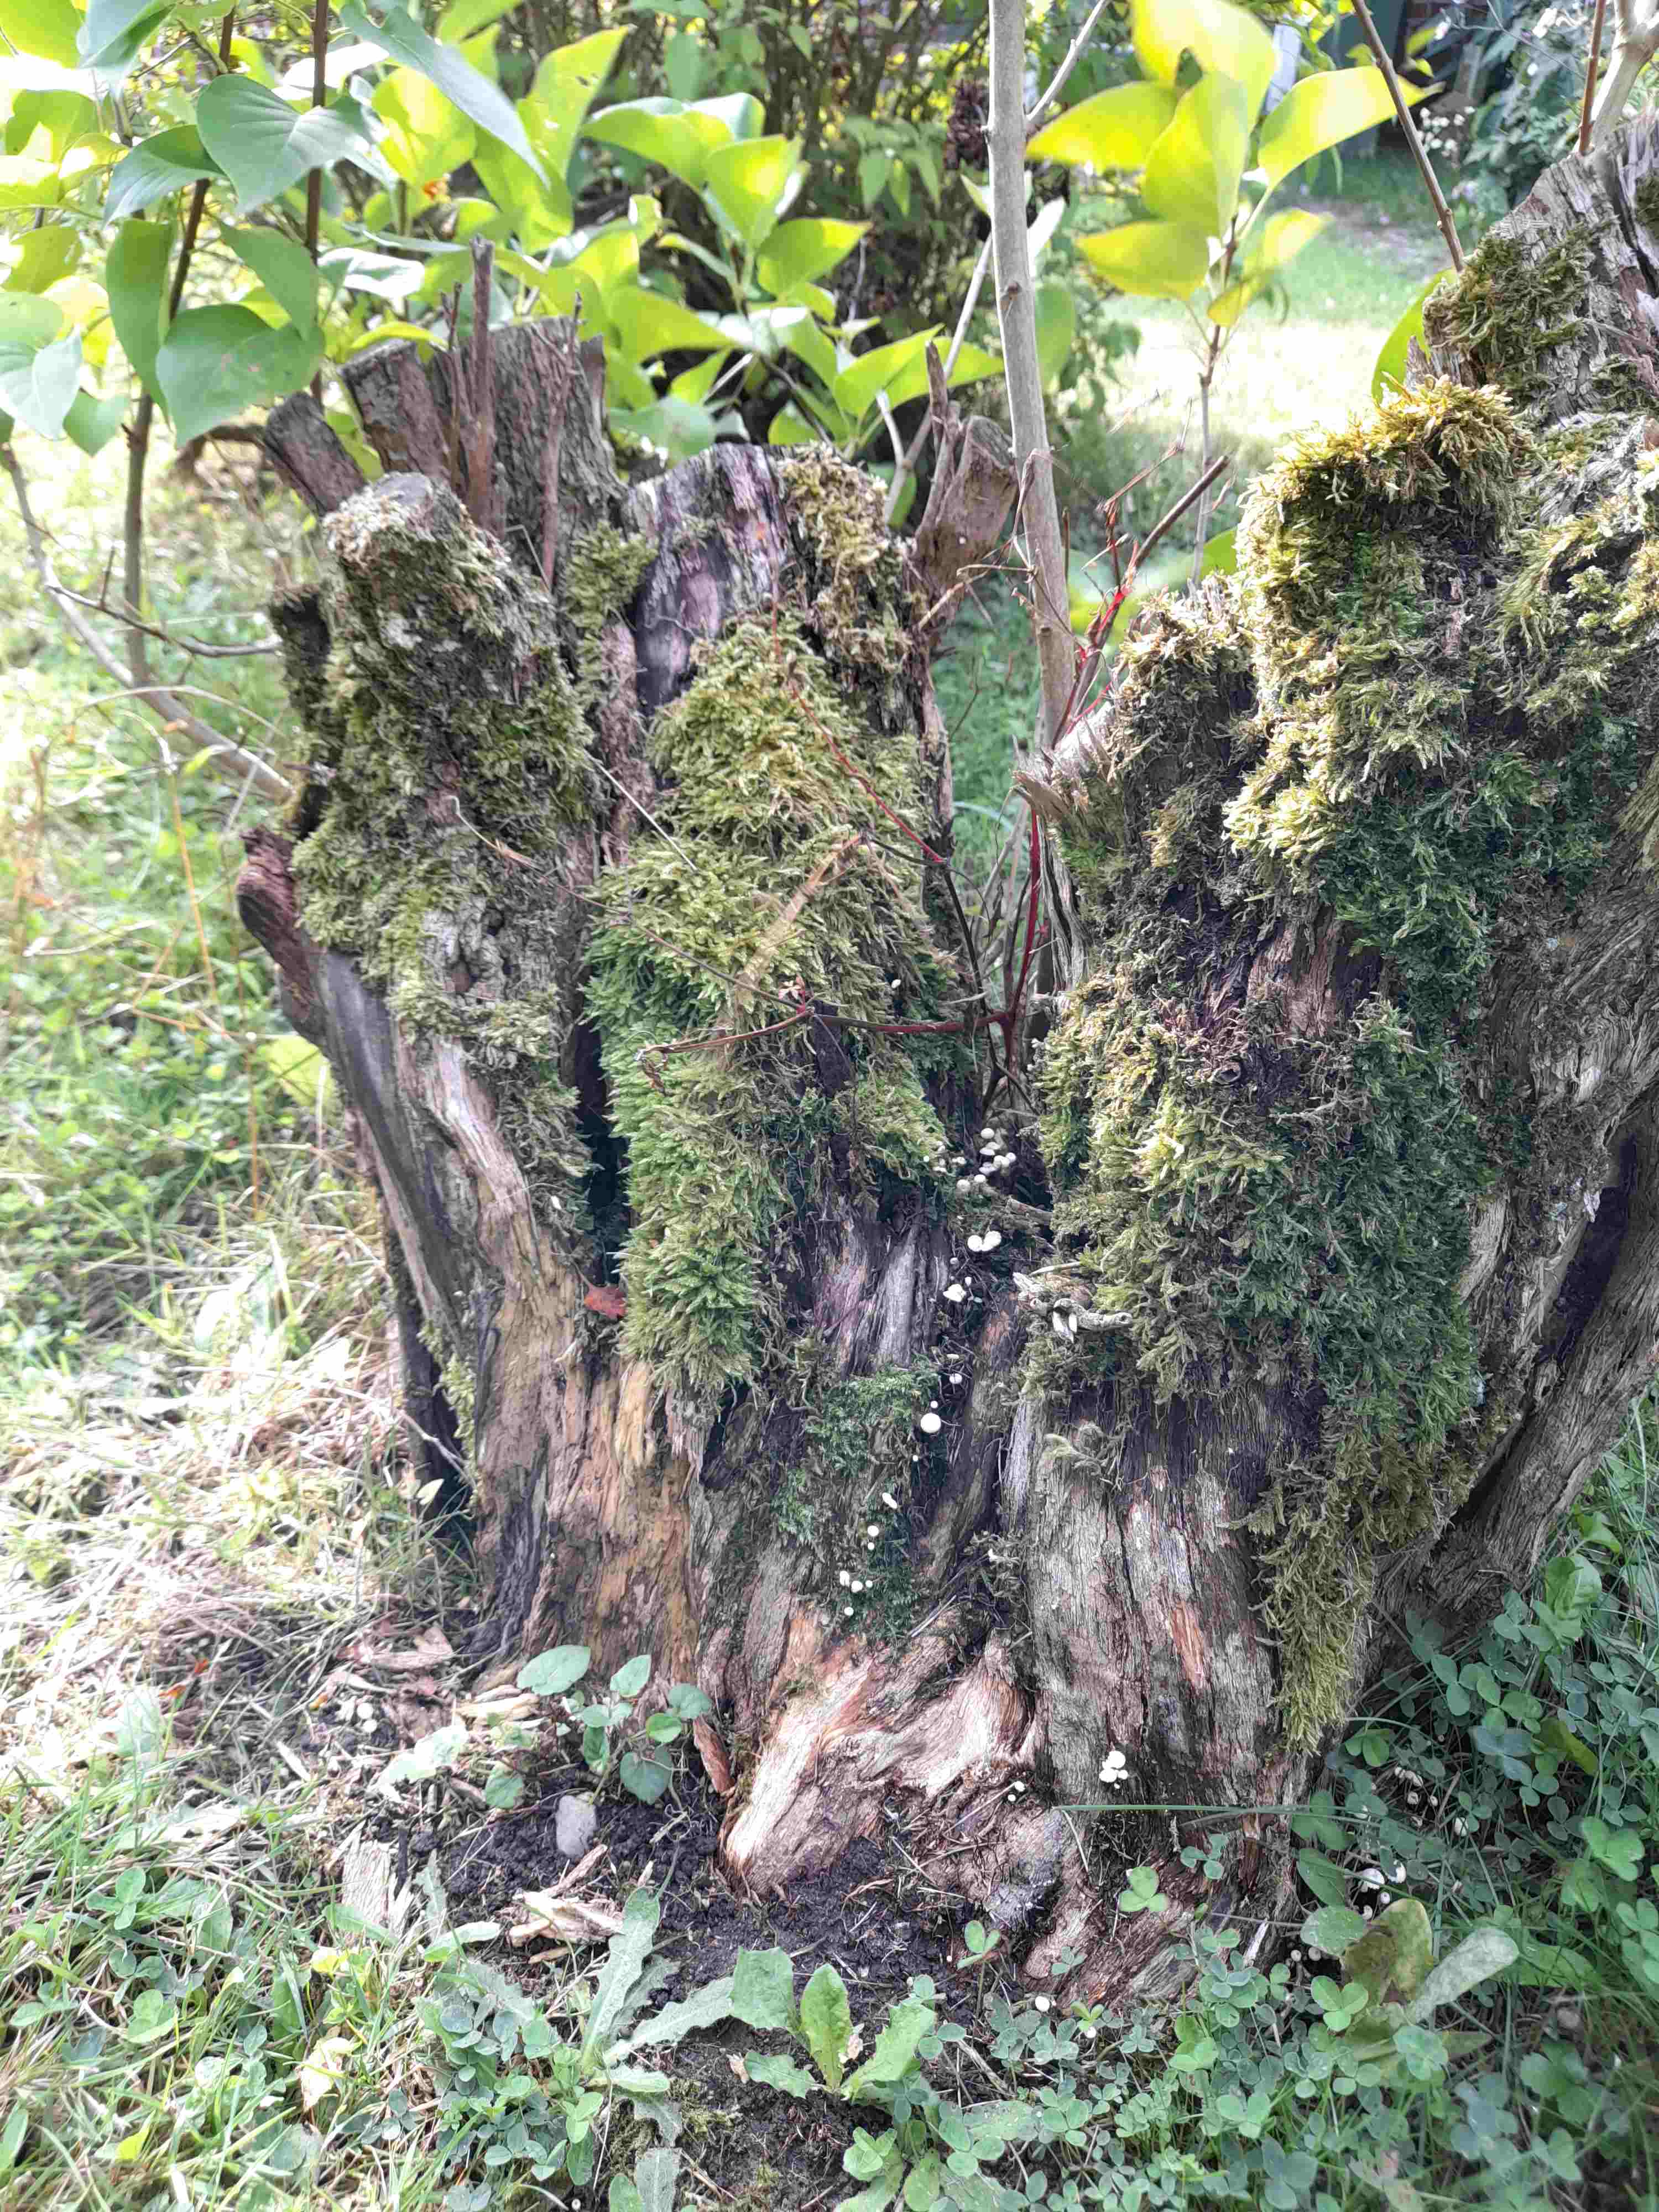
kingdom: Fungi
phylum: Basidiomycota
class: Agaricomycetes
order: Agaricales
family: Marasmiaceae
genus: Marasmius
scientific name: Marasmius rotula
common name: hjul-bruskhat
